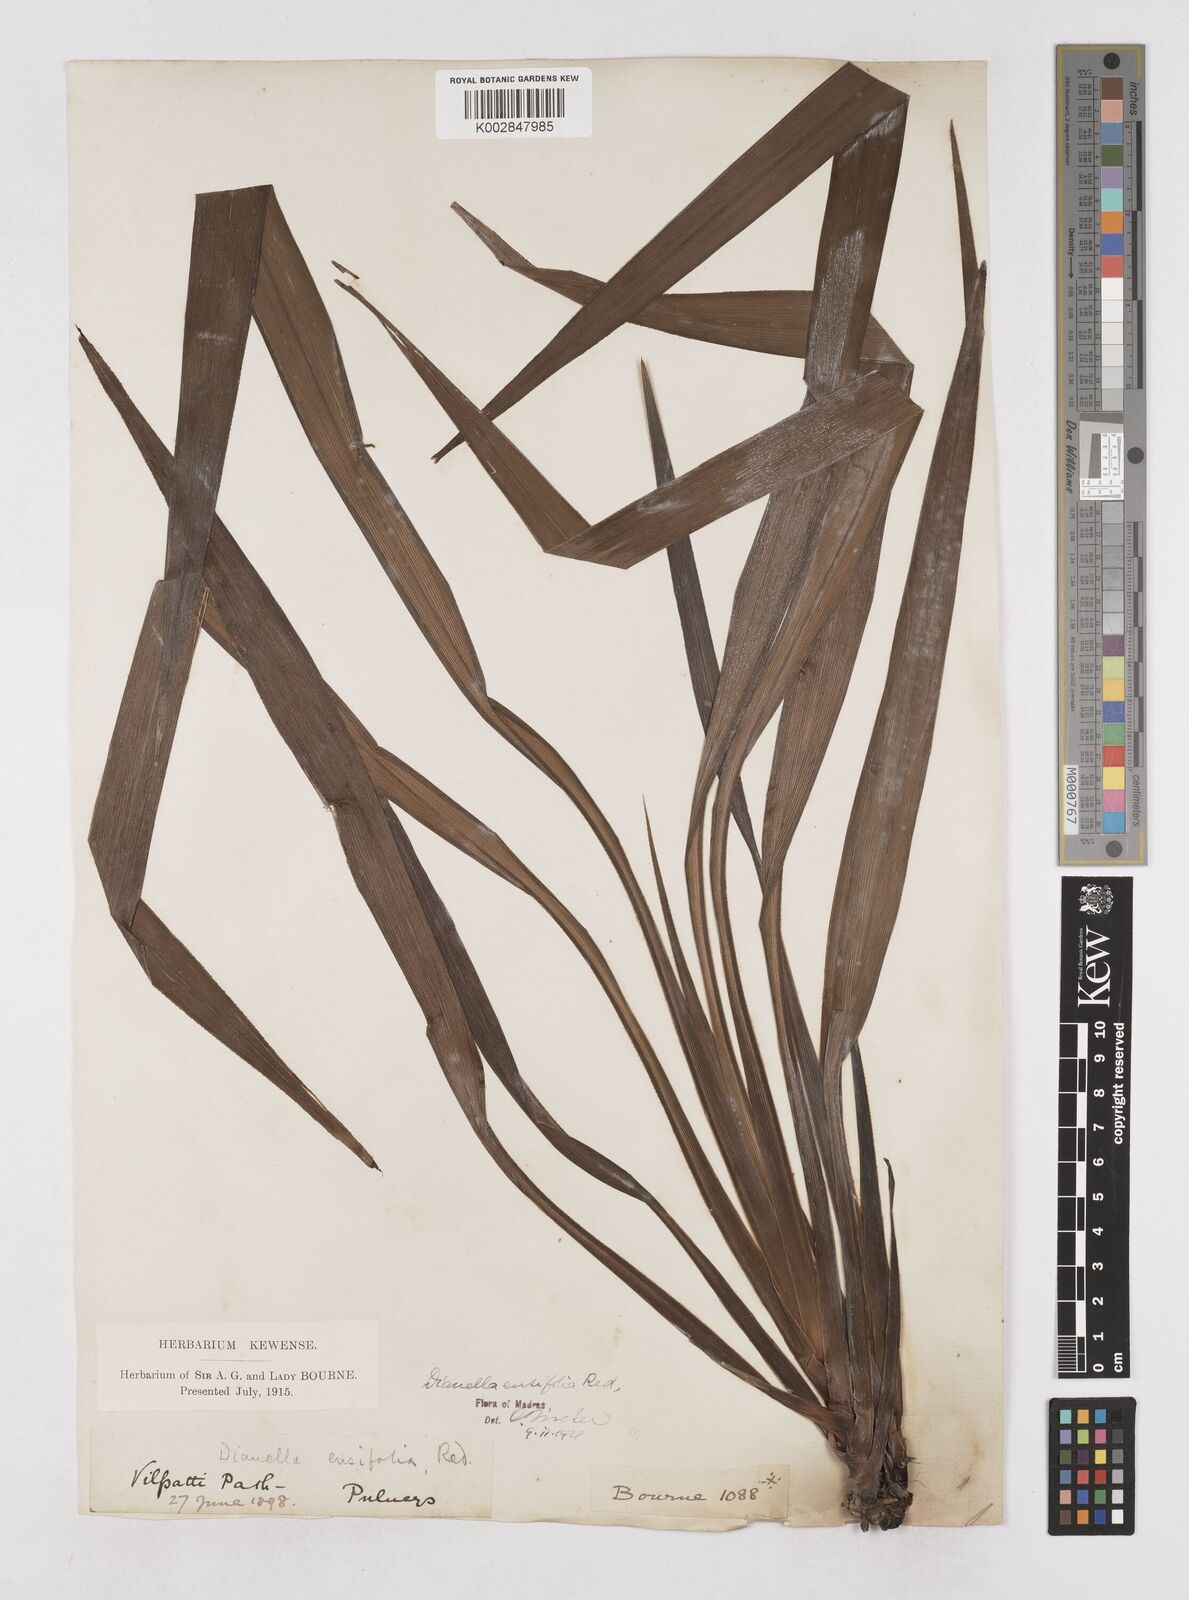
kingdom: Plantae
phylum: Tracheophyta
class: Liliopsida
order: Asparagales
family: Asphodelaceae
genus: Dianella
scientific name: Dianella ensifolia
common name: New zealand lilyplant
